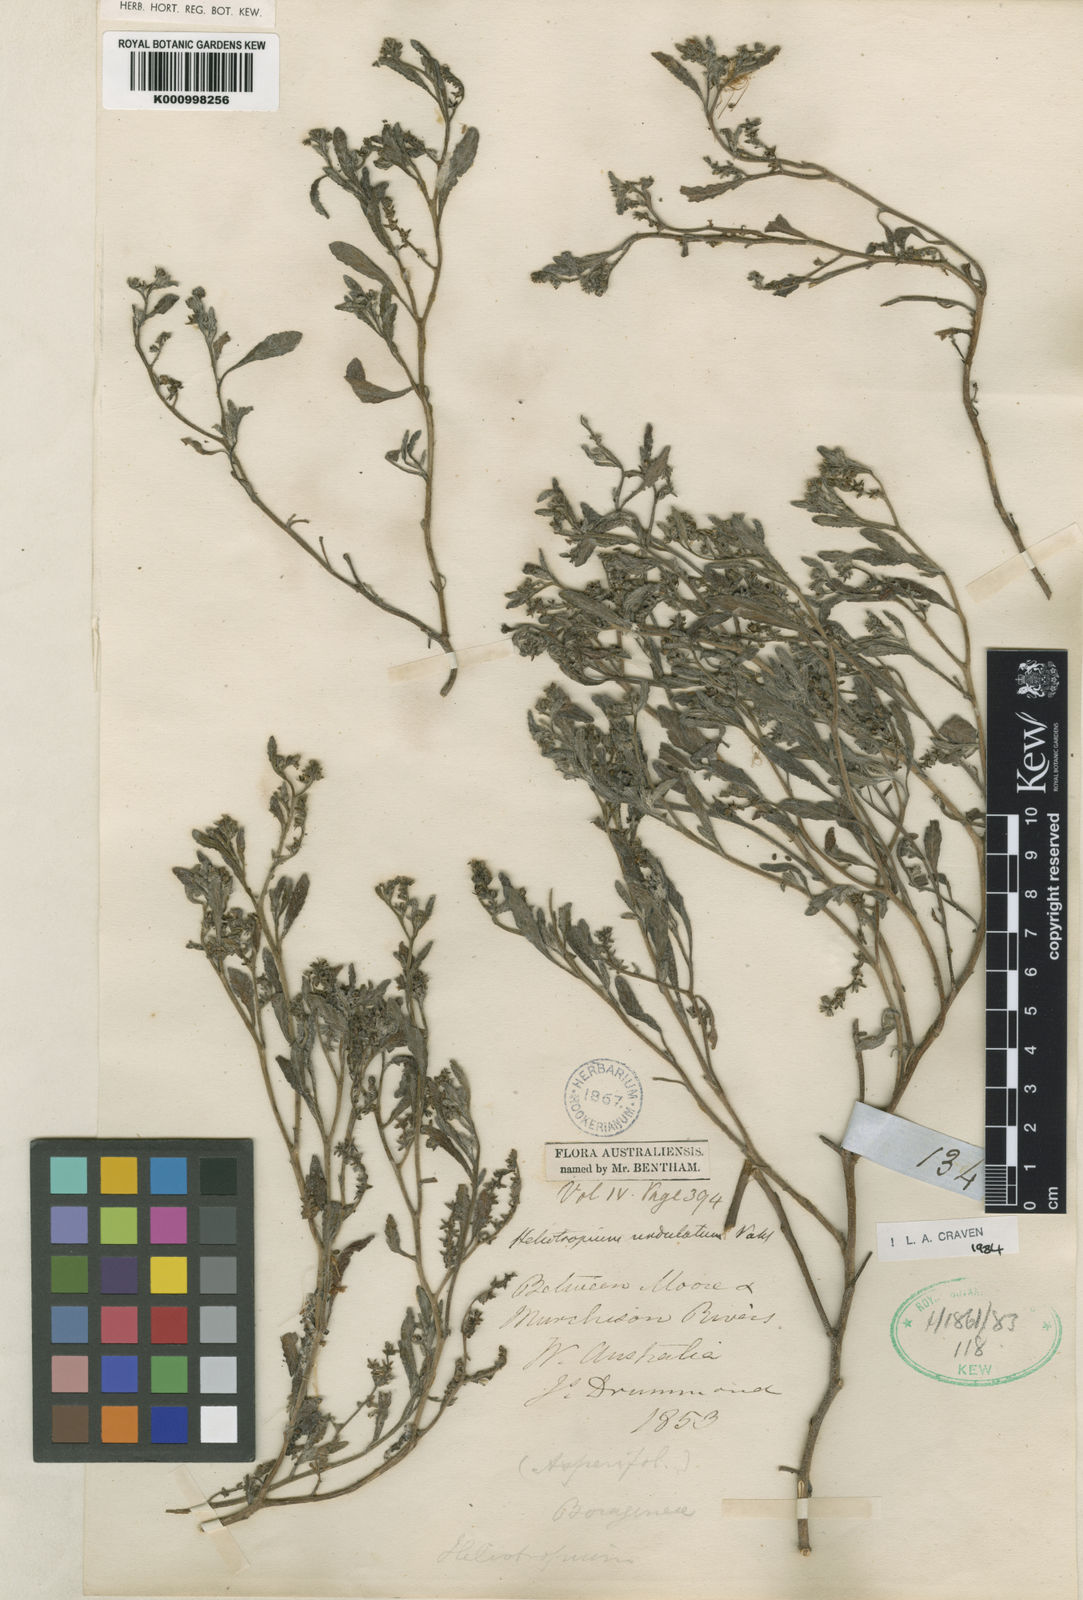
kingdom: Plantae
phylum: Tracheophyta
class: Magnoliopsida
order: Boraginales
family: Heliotropiaceae
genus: Heliotropium
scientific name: Heliotropium bacciferum
